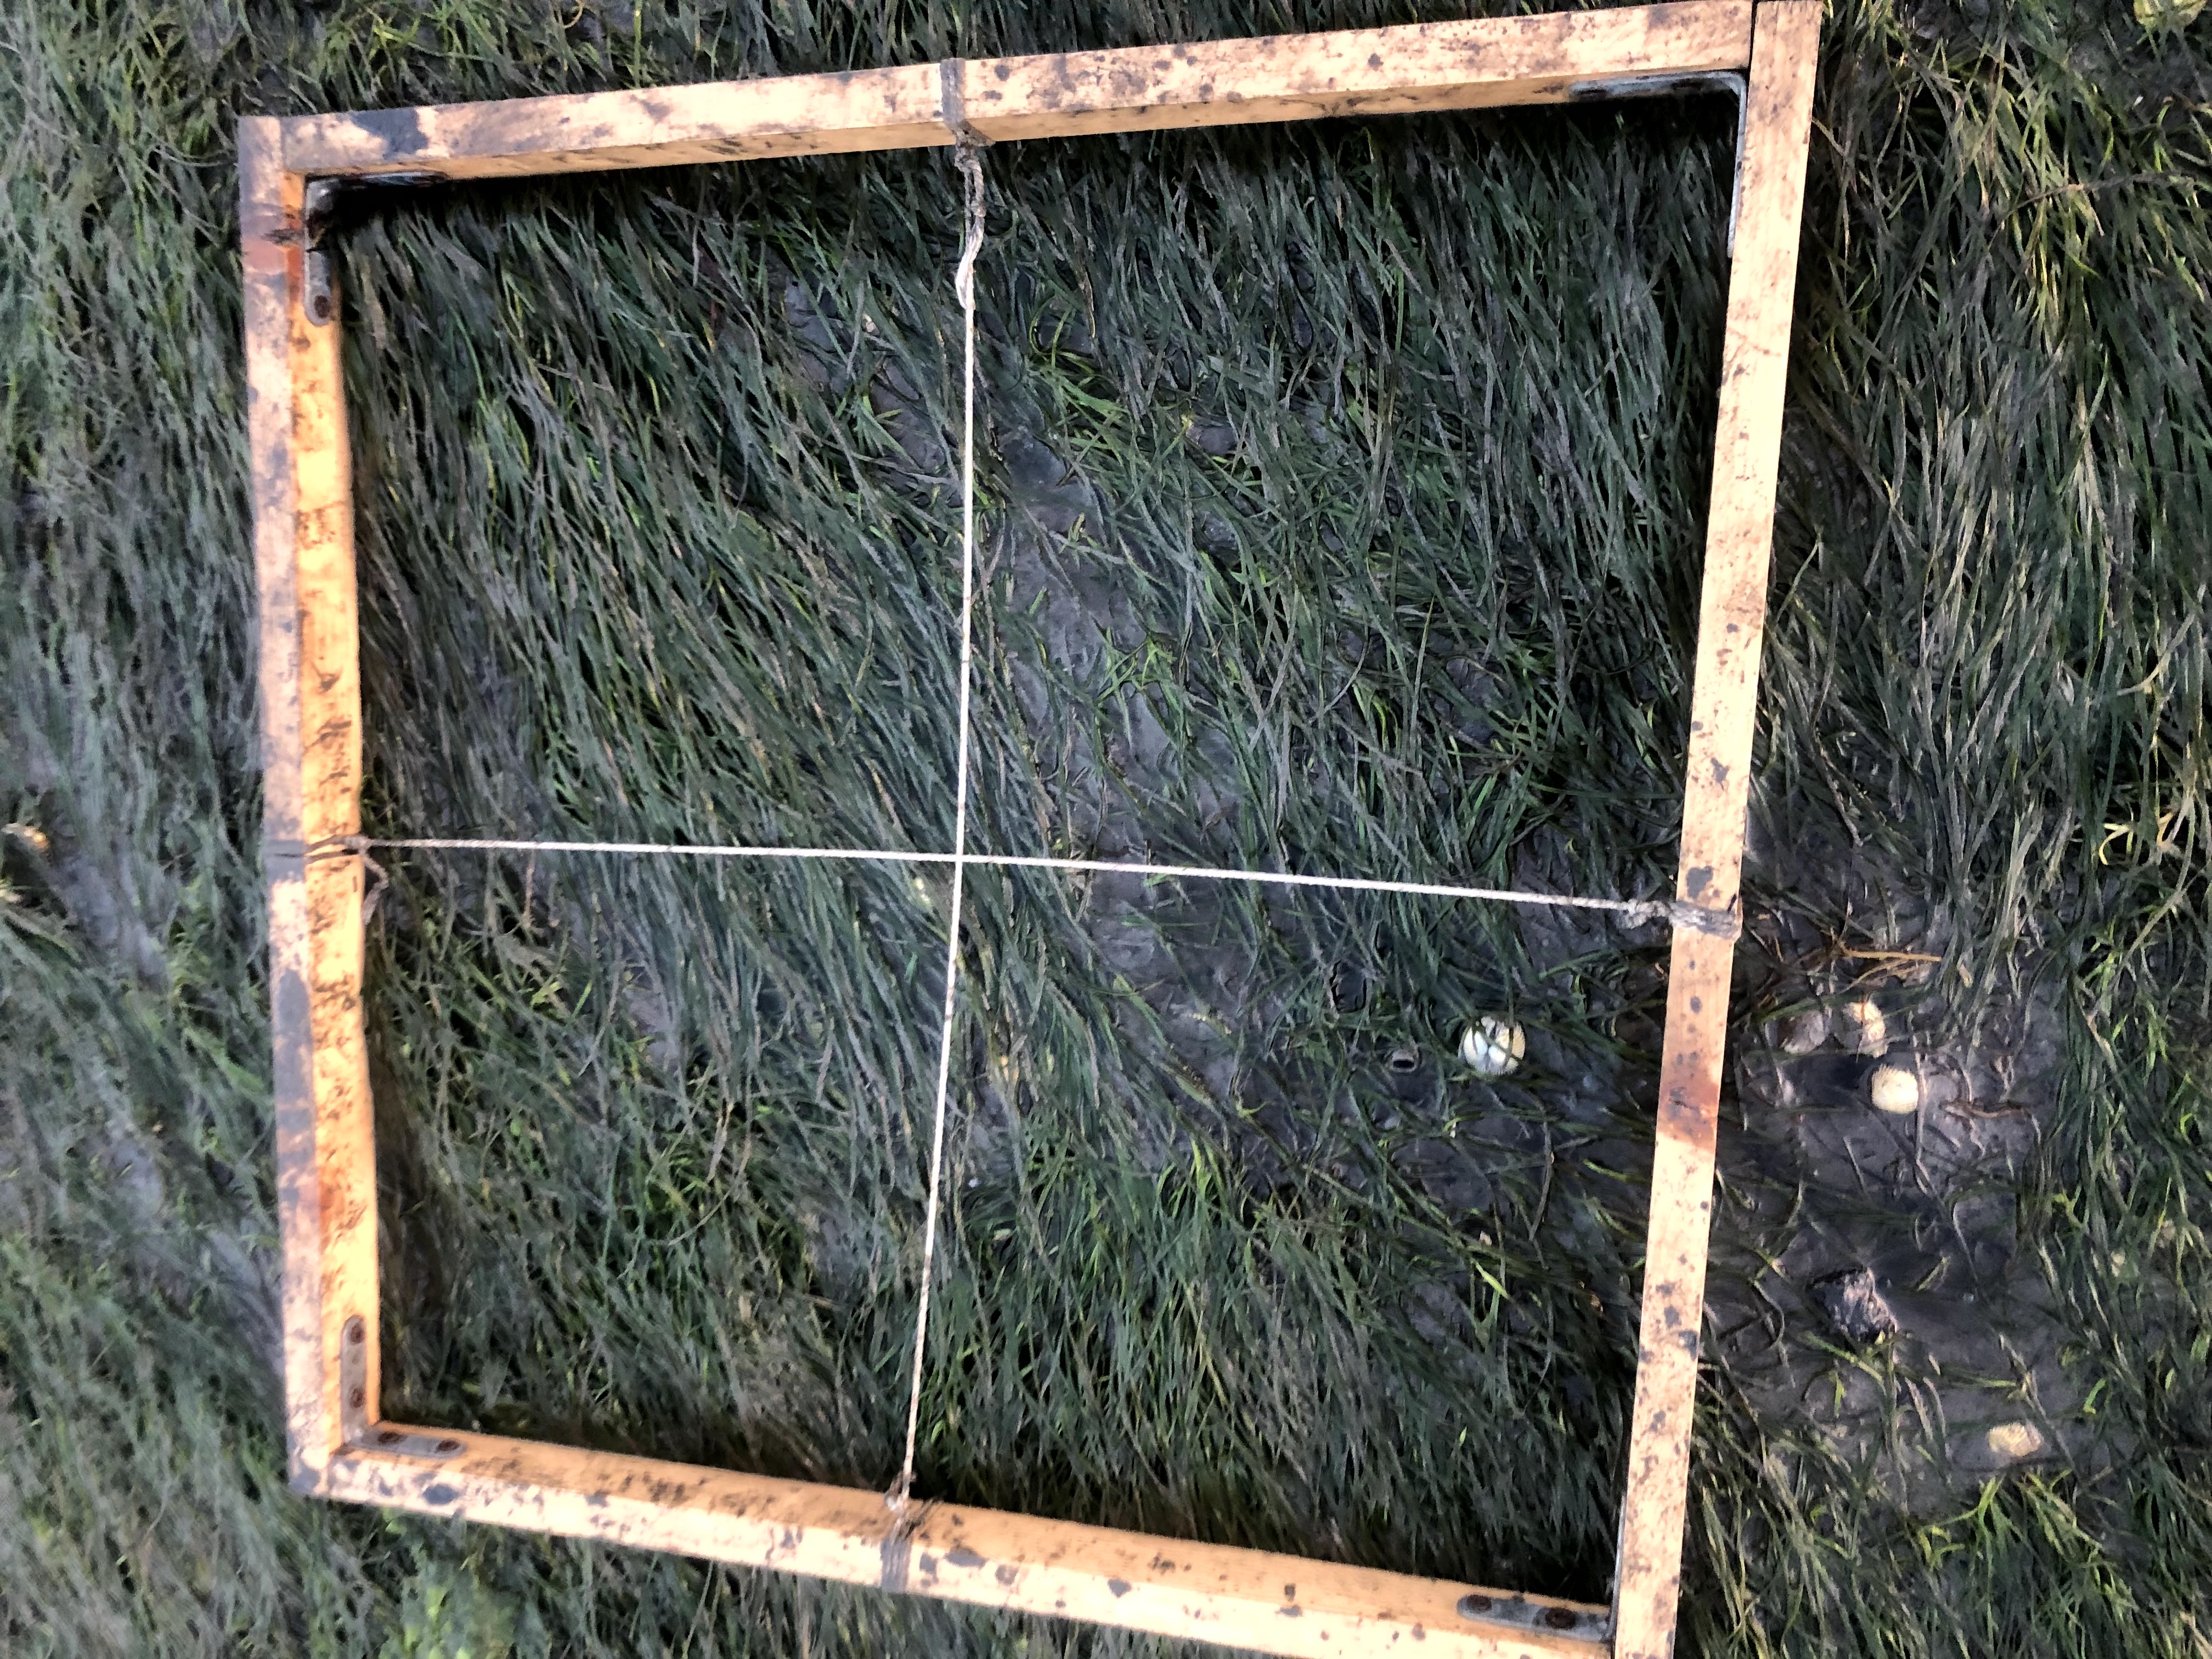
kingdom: Plantae
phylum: Tracheophyta
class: Liliopsida
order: Alismatales
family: Zosteraceae
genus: Zostera
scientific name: Zostera noltii
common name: Dwarf eelgrass
